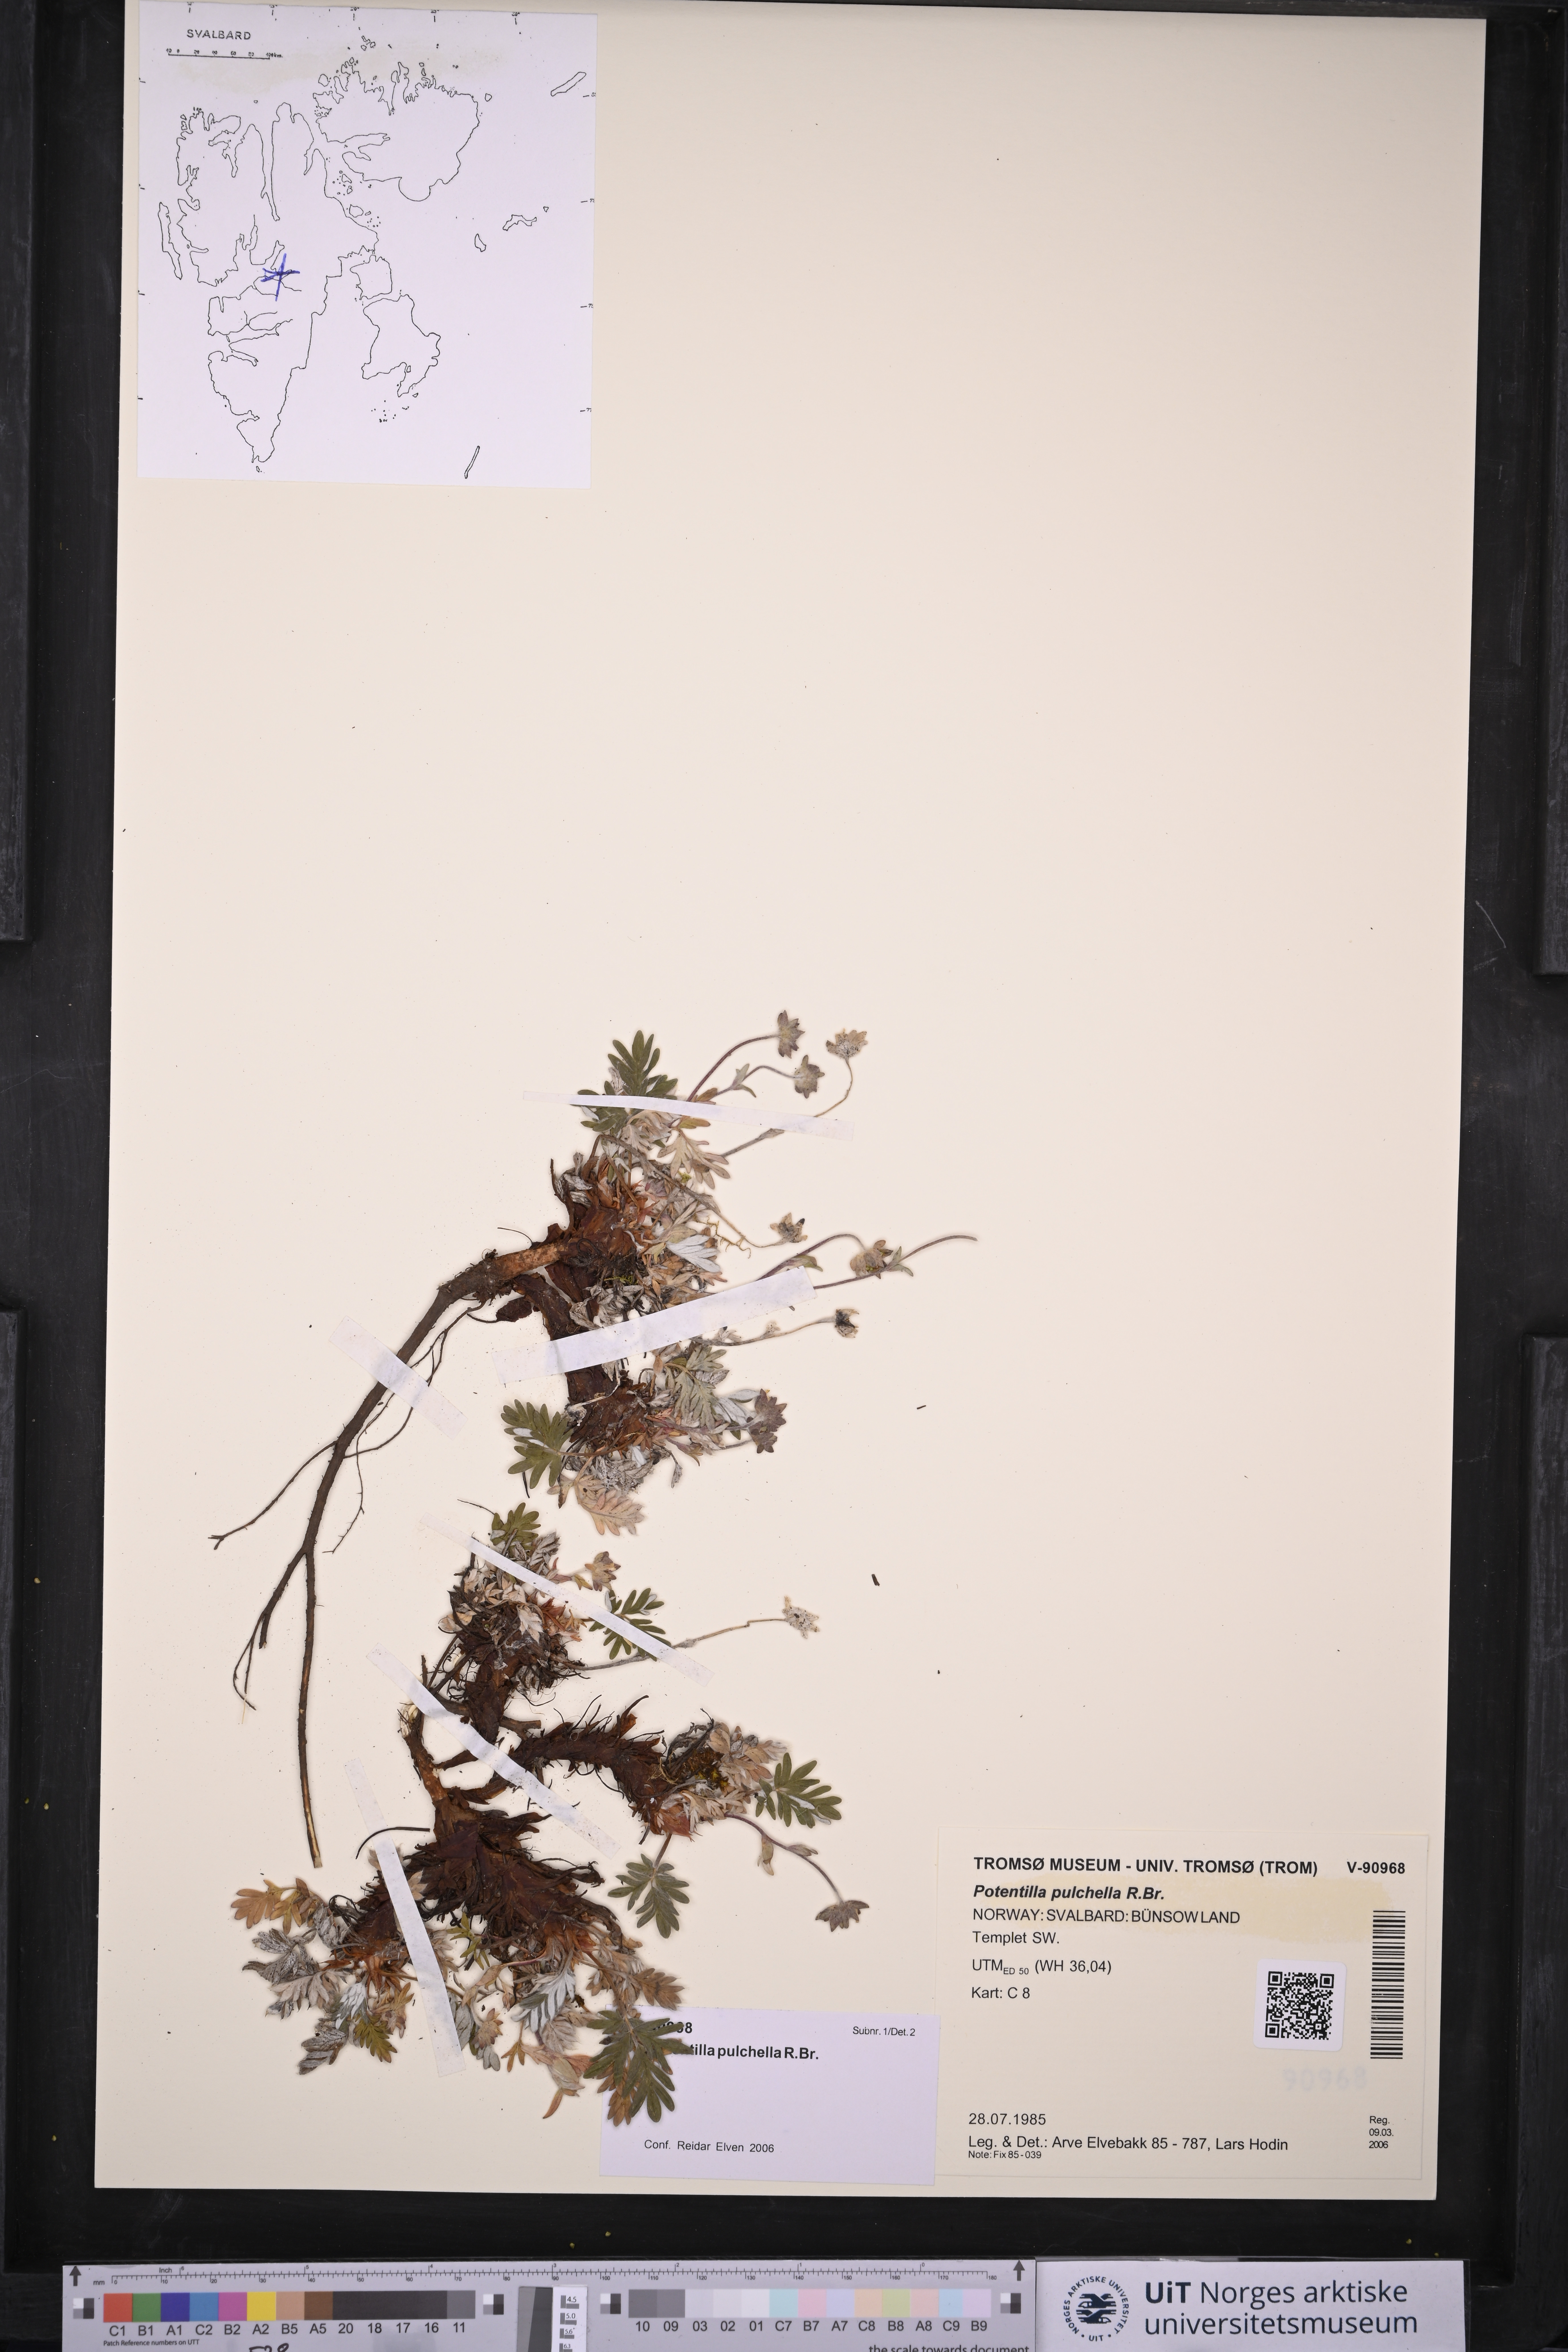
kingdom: Plantae
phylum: Tracheophyta
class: Magnoliopsida
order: Rosales
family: Rosaceae
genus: Potentilla
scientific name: Potentilla pulchella
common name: Pretty cinquefoil
